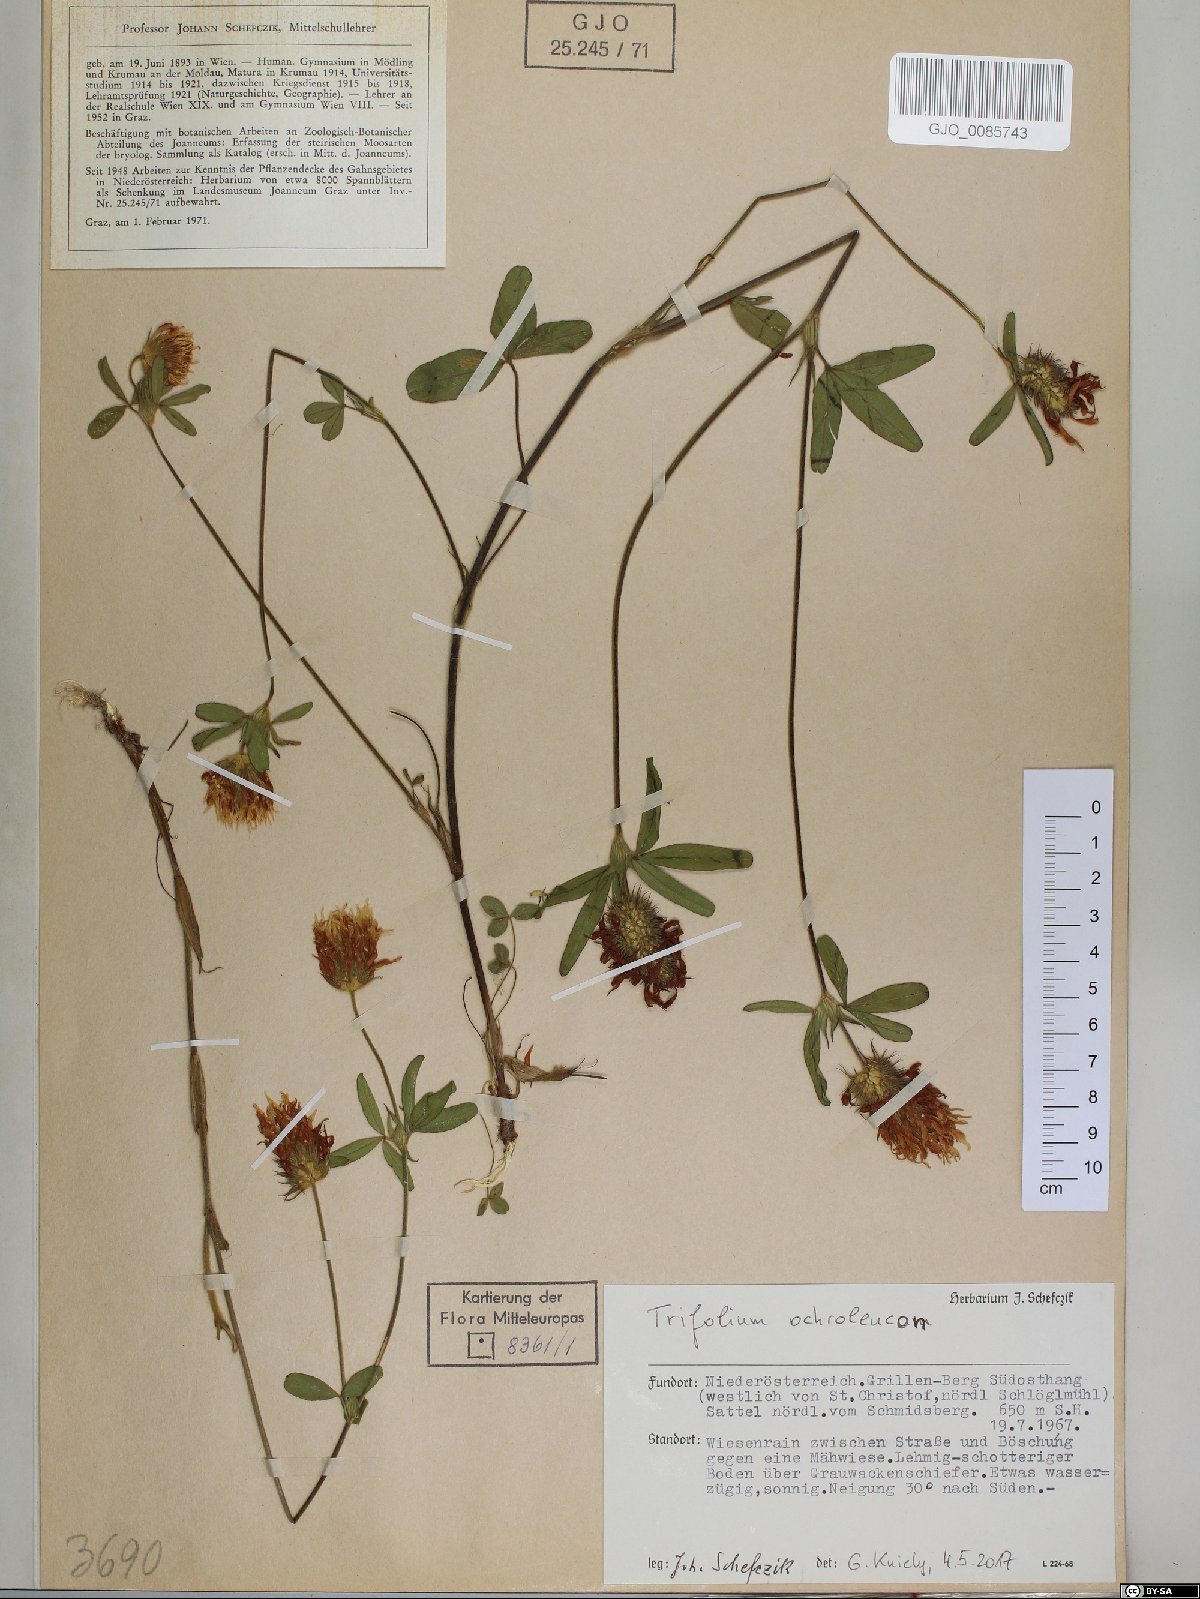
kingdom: Plantae
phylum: Tracheophyta
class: Magnoliopsida
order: Fabales
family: Fabaceae
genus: Trifolium
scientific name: Trifolium ochroleucon
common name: Sulphur clover
